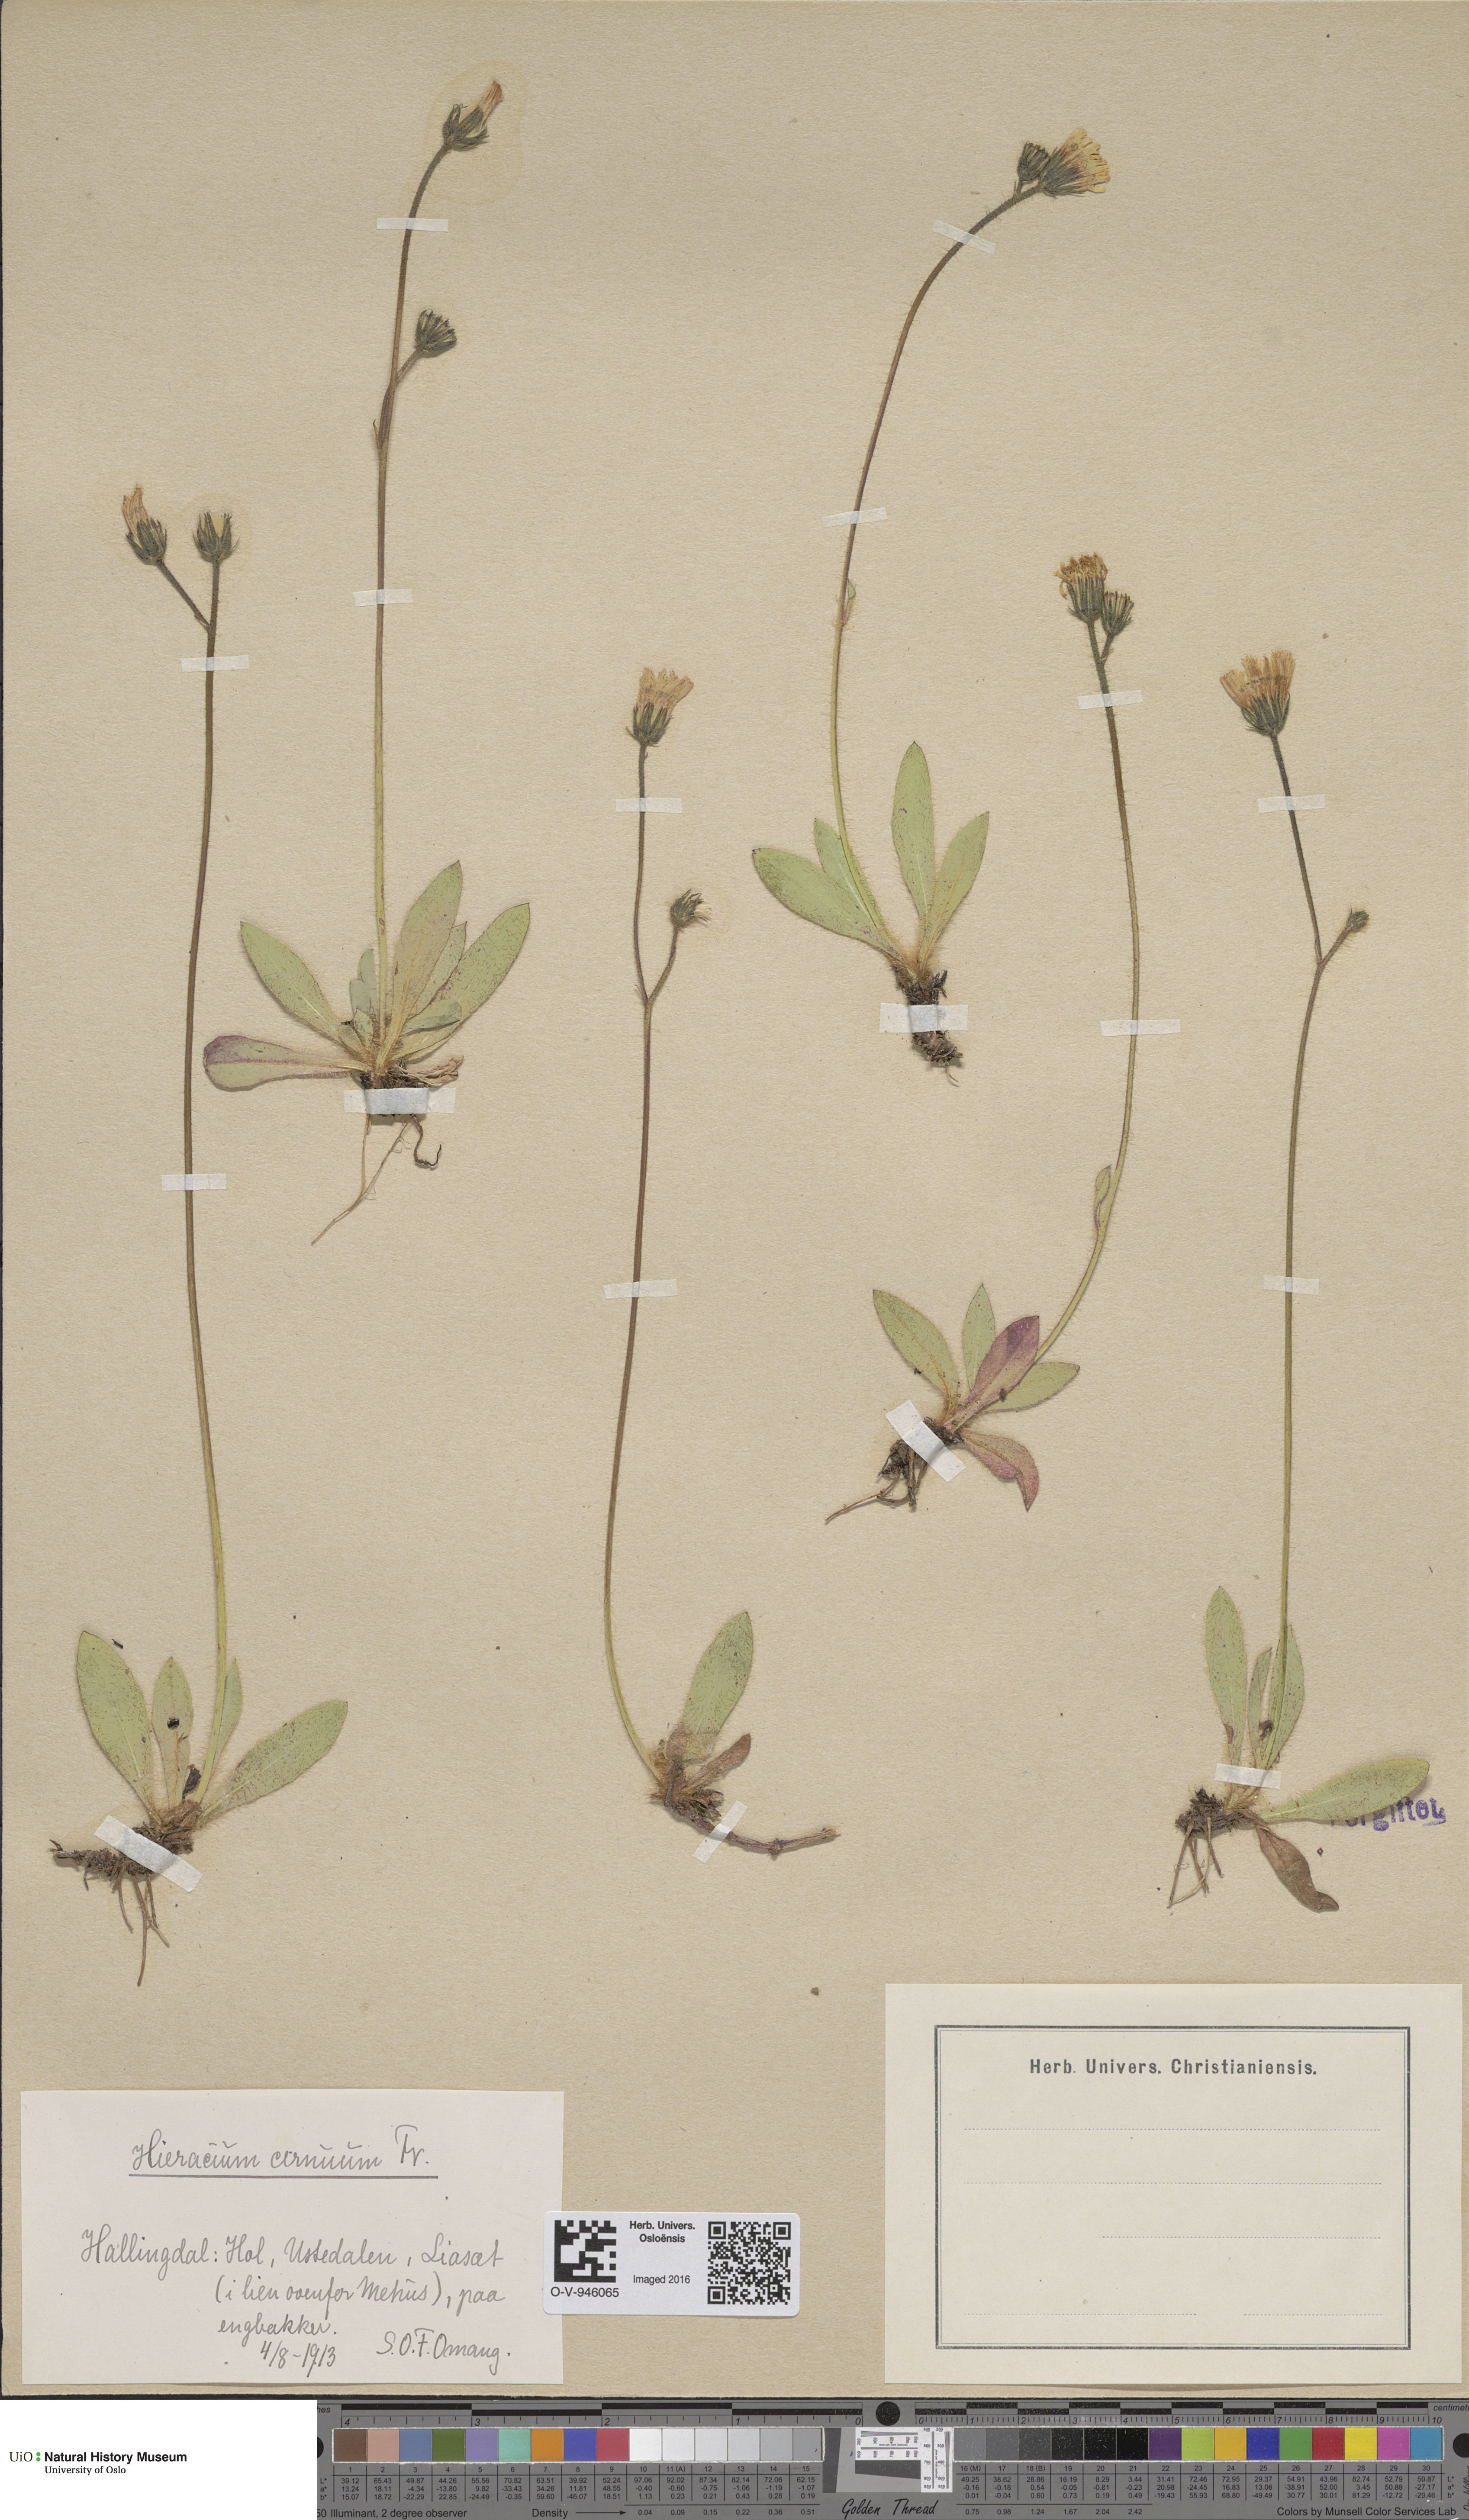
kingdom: Plantae
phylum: Tracheophyta
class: Magnoliopsida
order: Asterales
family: Asteraceae
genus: Pilosella
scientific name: Pilosella peteriana
